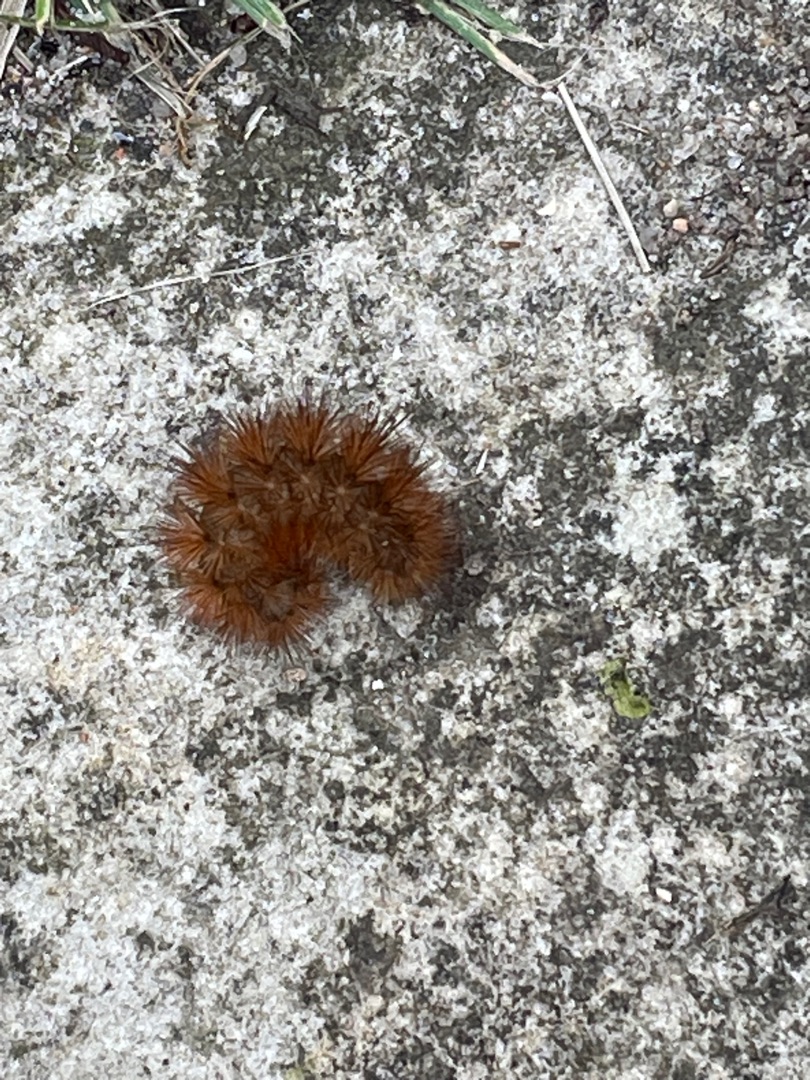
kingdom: Animalia
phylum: Arthropoda
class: Insecta
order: Hemiptera
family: Pentatomidae
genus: Graphosoma
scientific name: Graphosoma italicum
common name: Stribetæge
